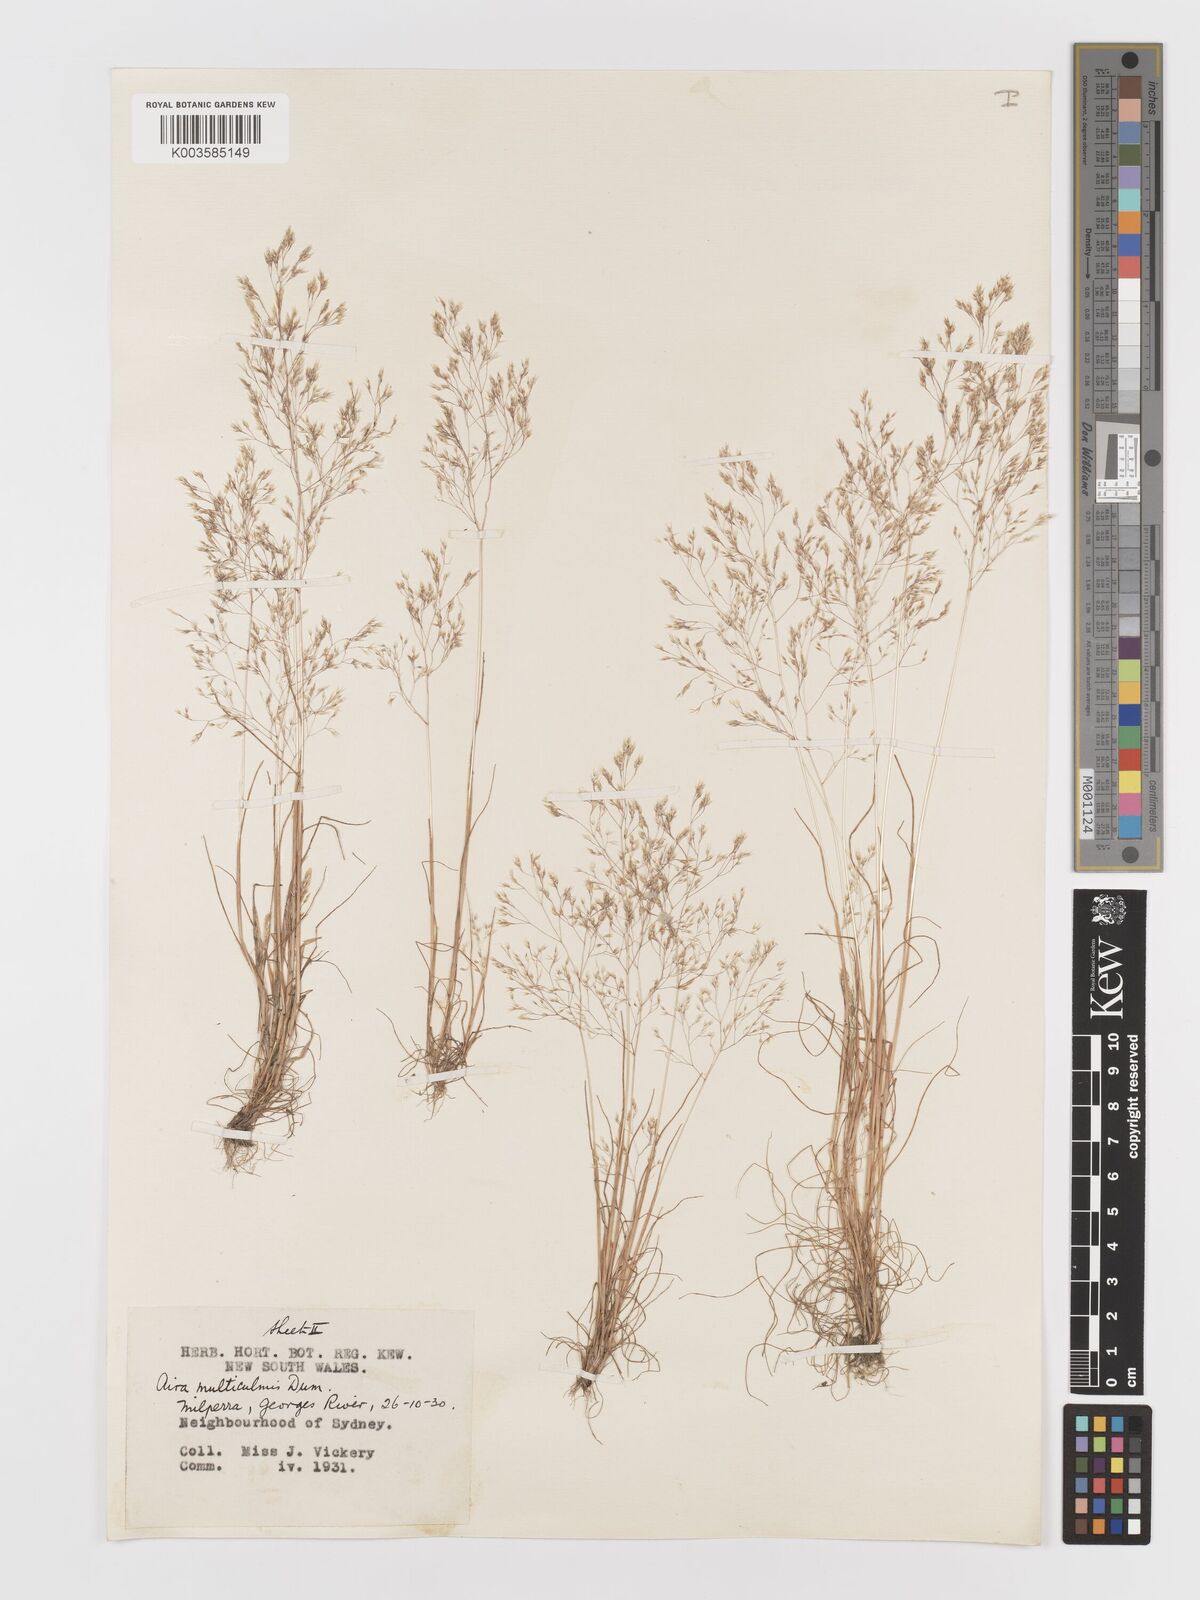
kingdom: Plantae
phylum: Tracheophyta
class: Liliopsida
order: Poales
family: Poaceae
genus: Aira
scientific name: Aira cupaniana
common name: Silver hairgrass
